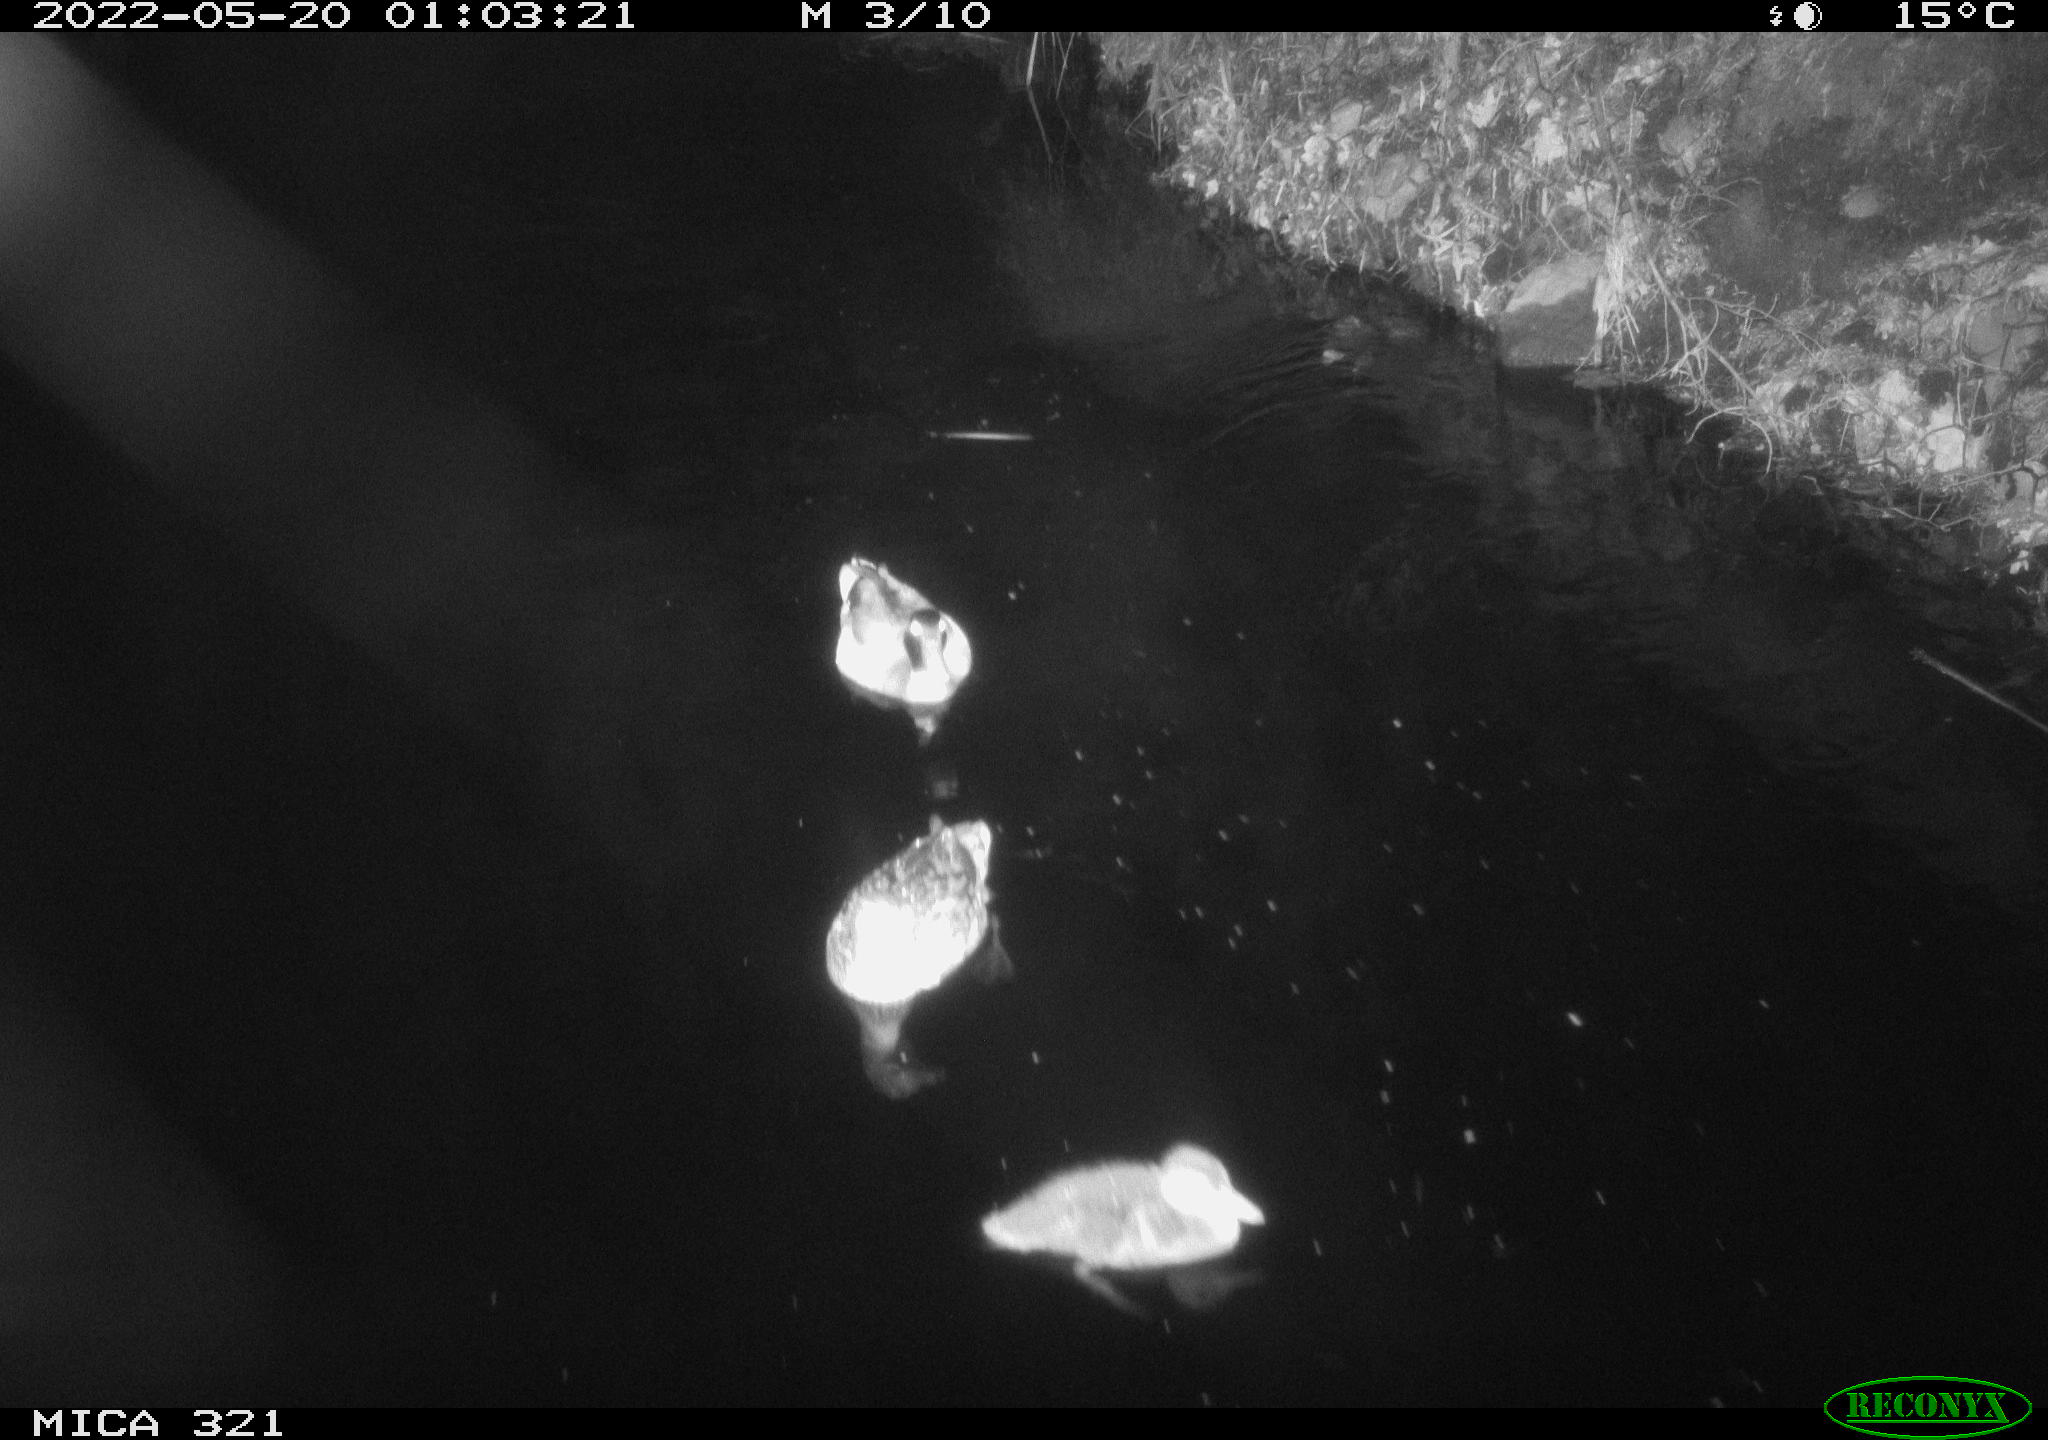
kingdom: Animalia
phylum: Chordata
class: Aves
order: Anseriformes
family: Anatidae
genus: Anas
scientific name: Anas platyrhynchos
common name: Mallard
